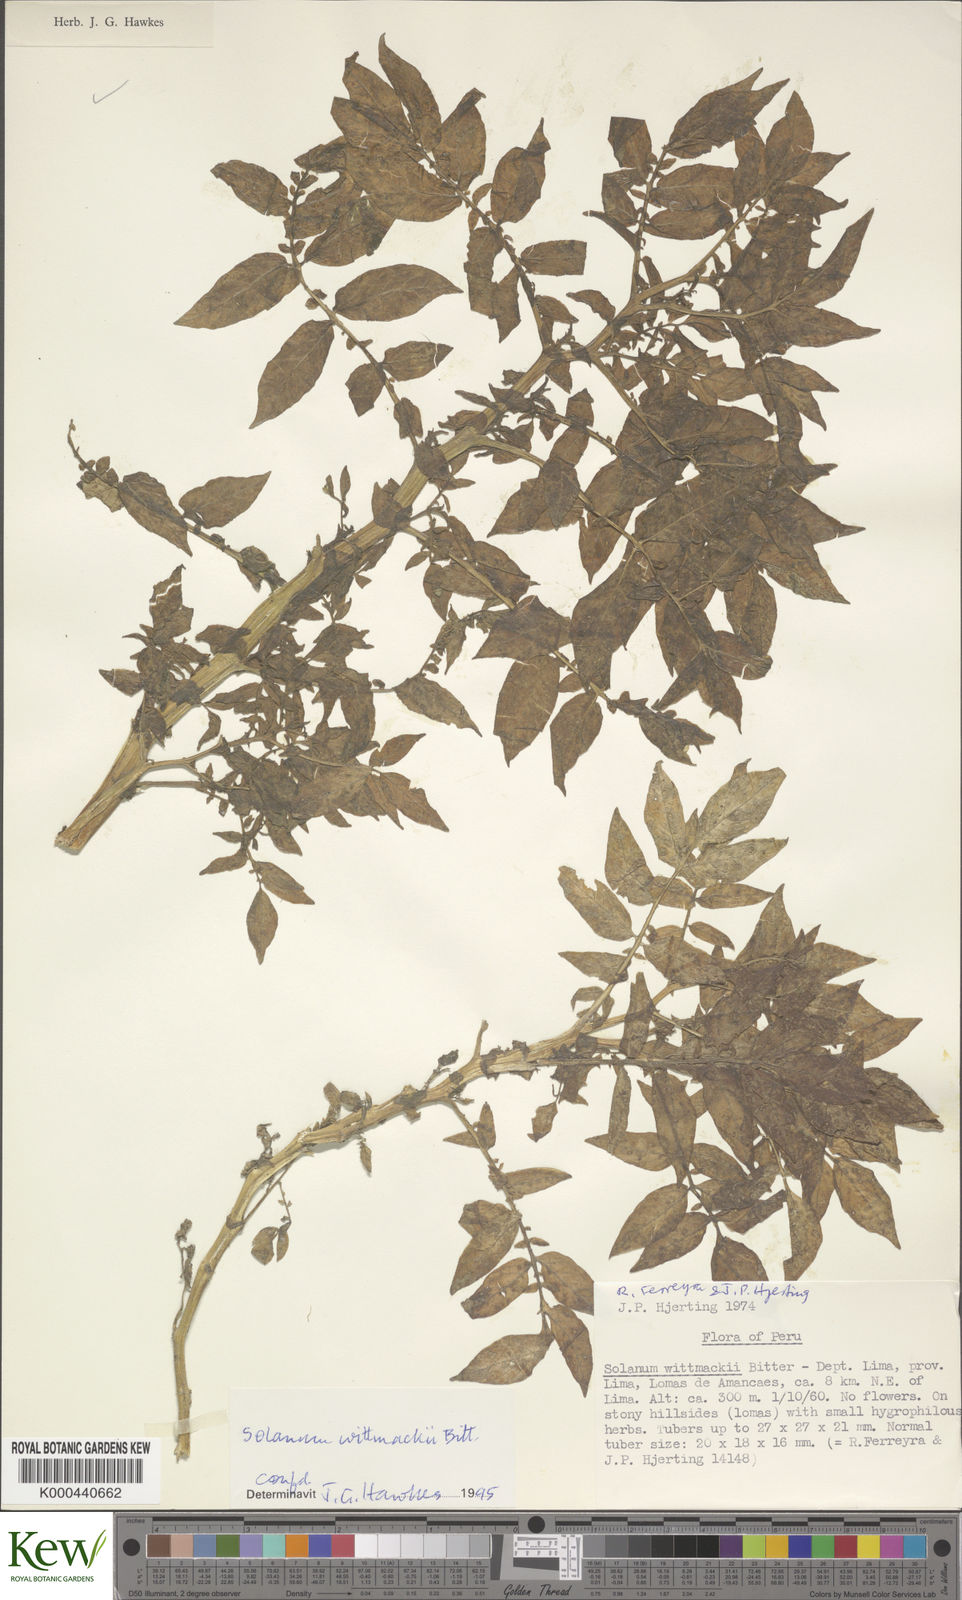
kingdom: Plantae
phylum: Tracheophyta
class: Magnoliopsida
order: Solanales
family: Solanaceae
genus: Solanum
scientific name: Solanum wittmackii
